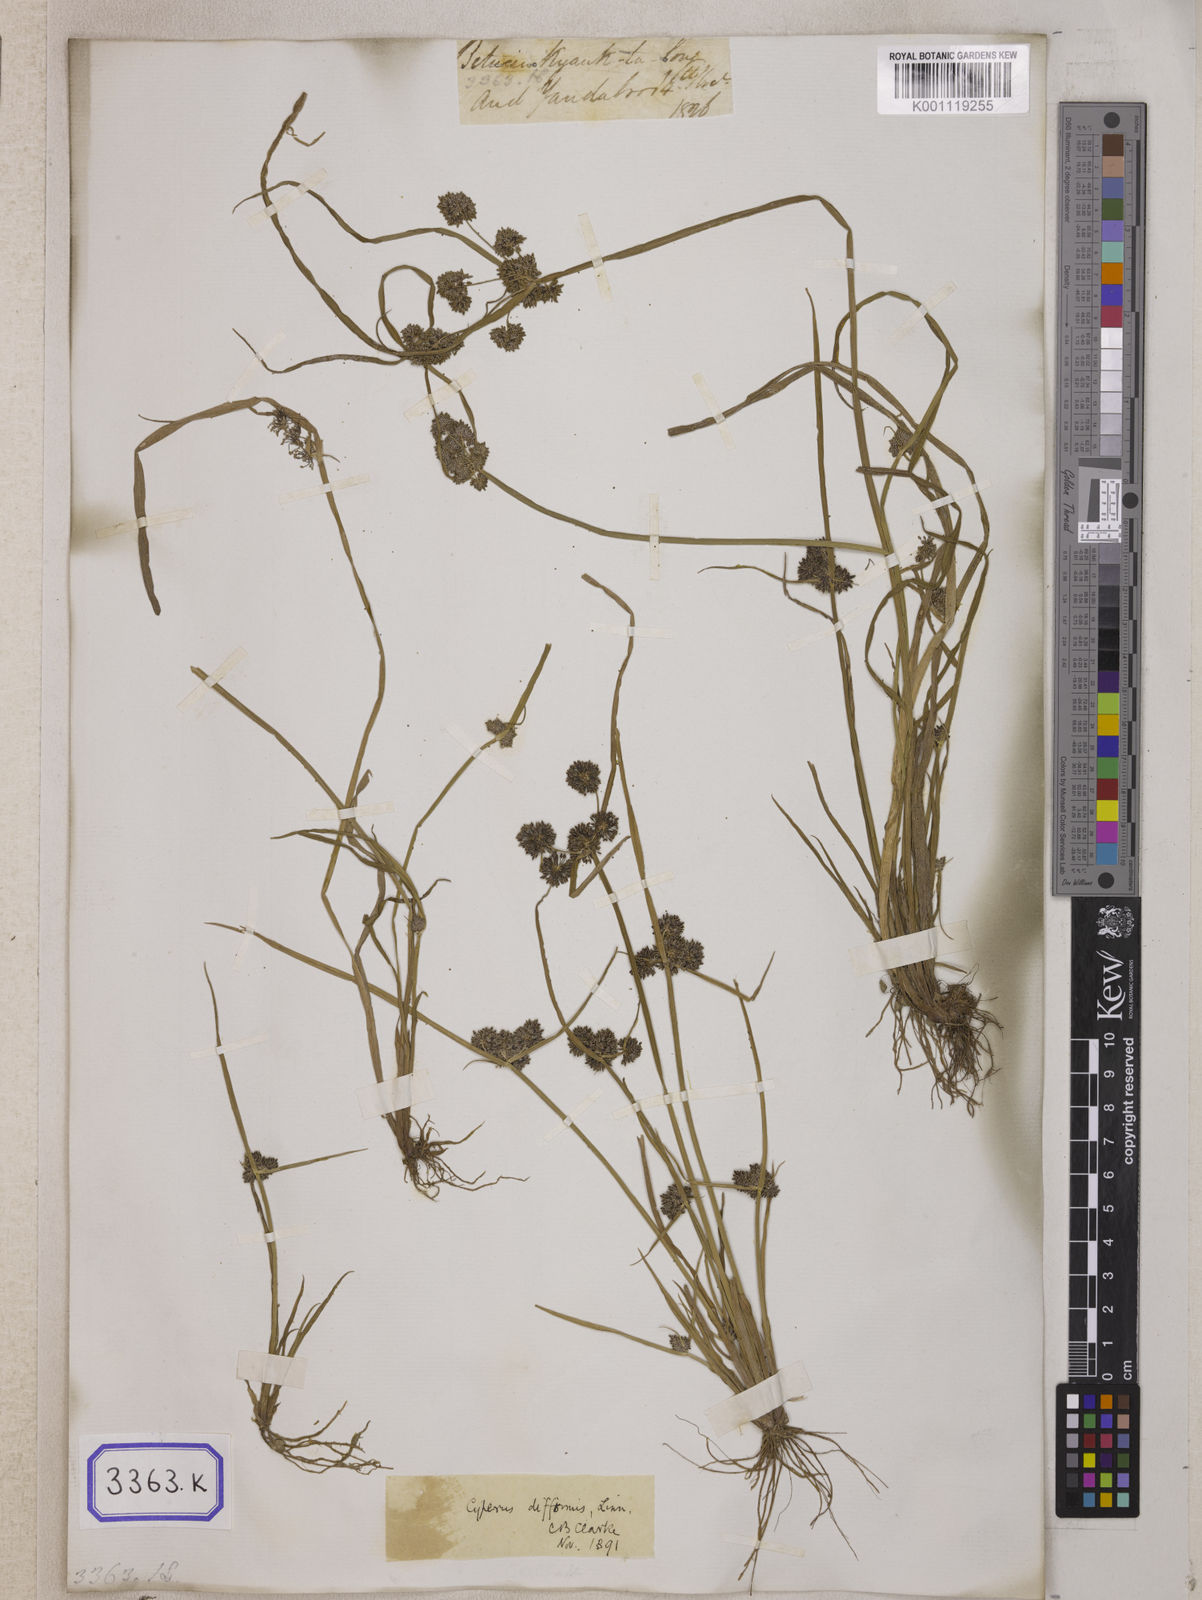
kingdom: Plantae
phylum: Tracheophyta
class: Liliopsida
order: Poales
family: Cyperaceae
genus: Cyperus
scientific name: Cyperus
